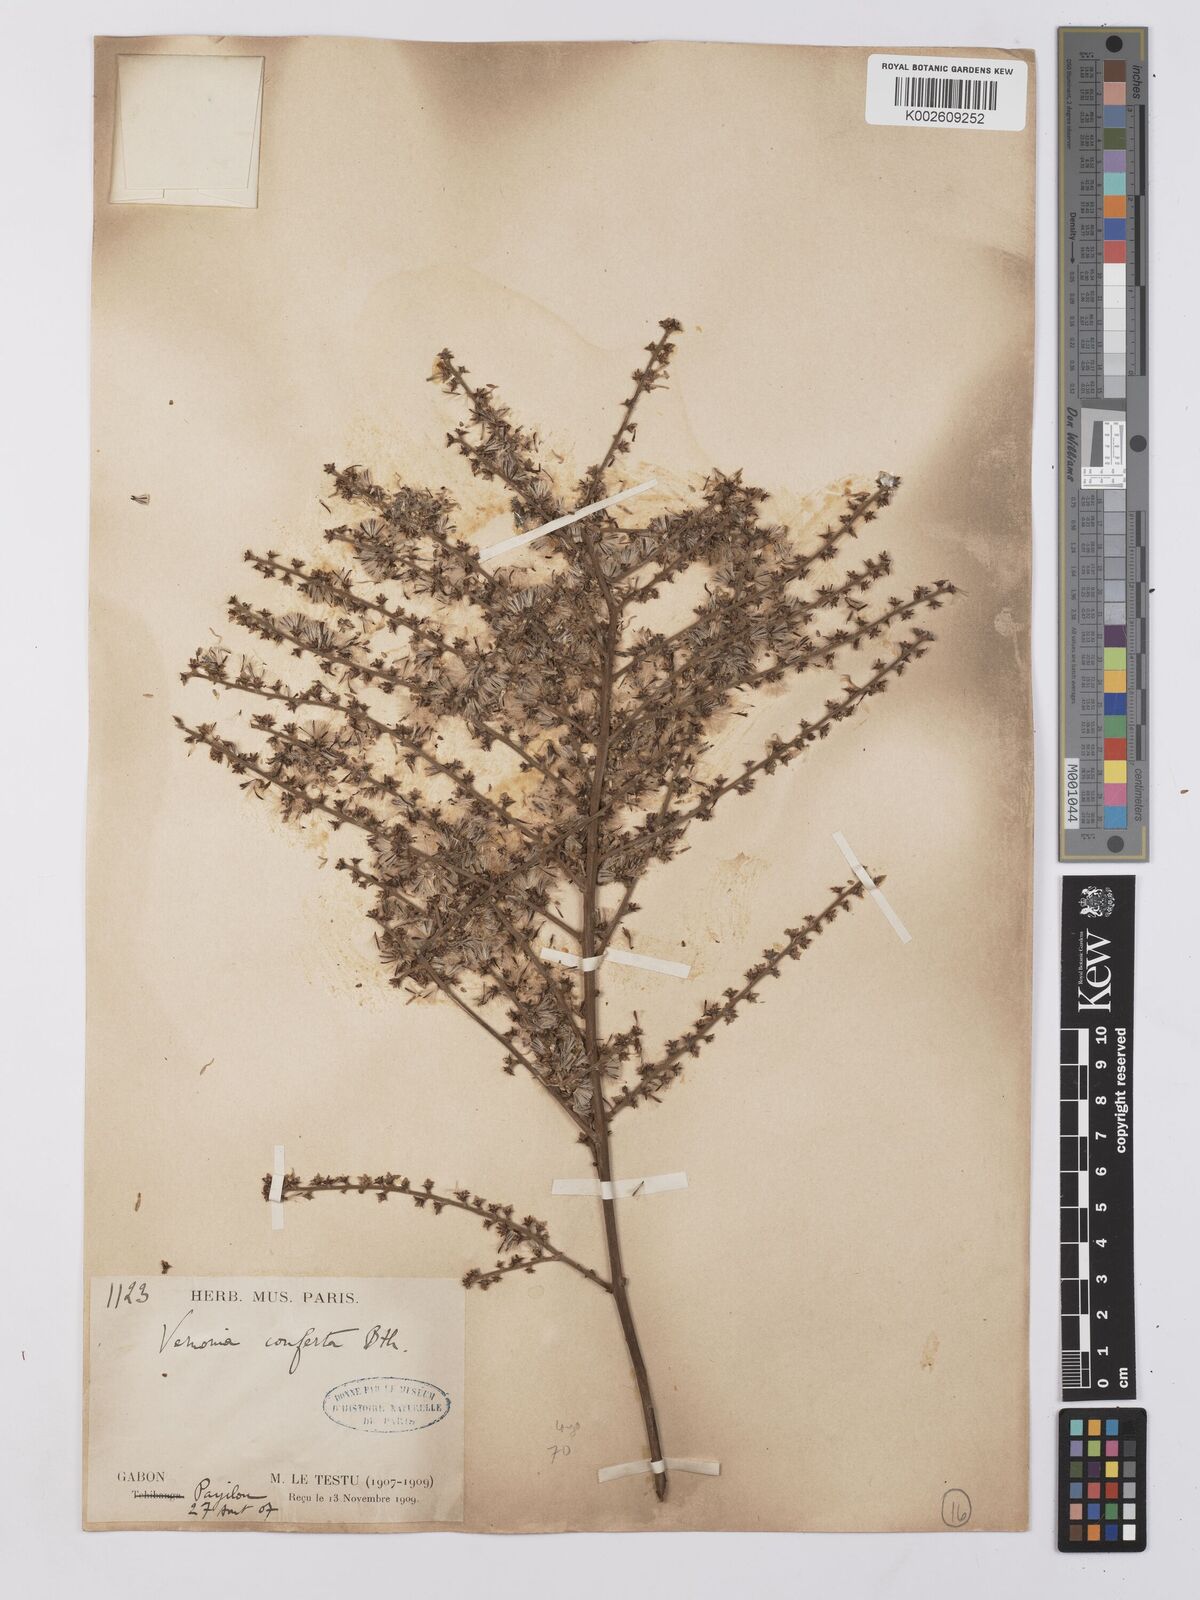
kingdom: Plantae
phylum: Tracheophyta
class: Magnoliopsida
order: Asterales
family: Asteraceae
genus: Monosis
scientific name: Monosis conferta
